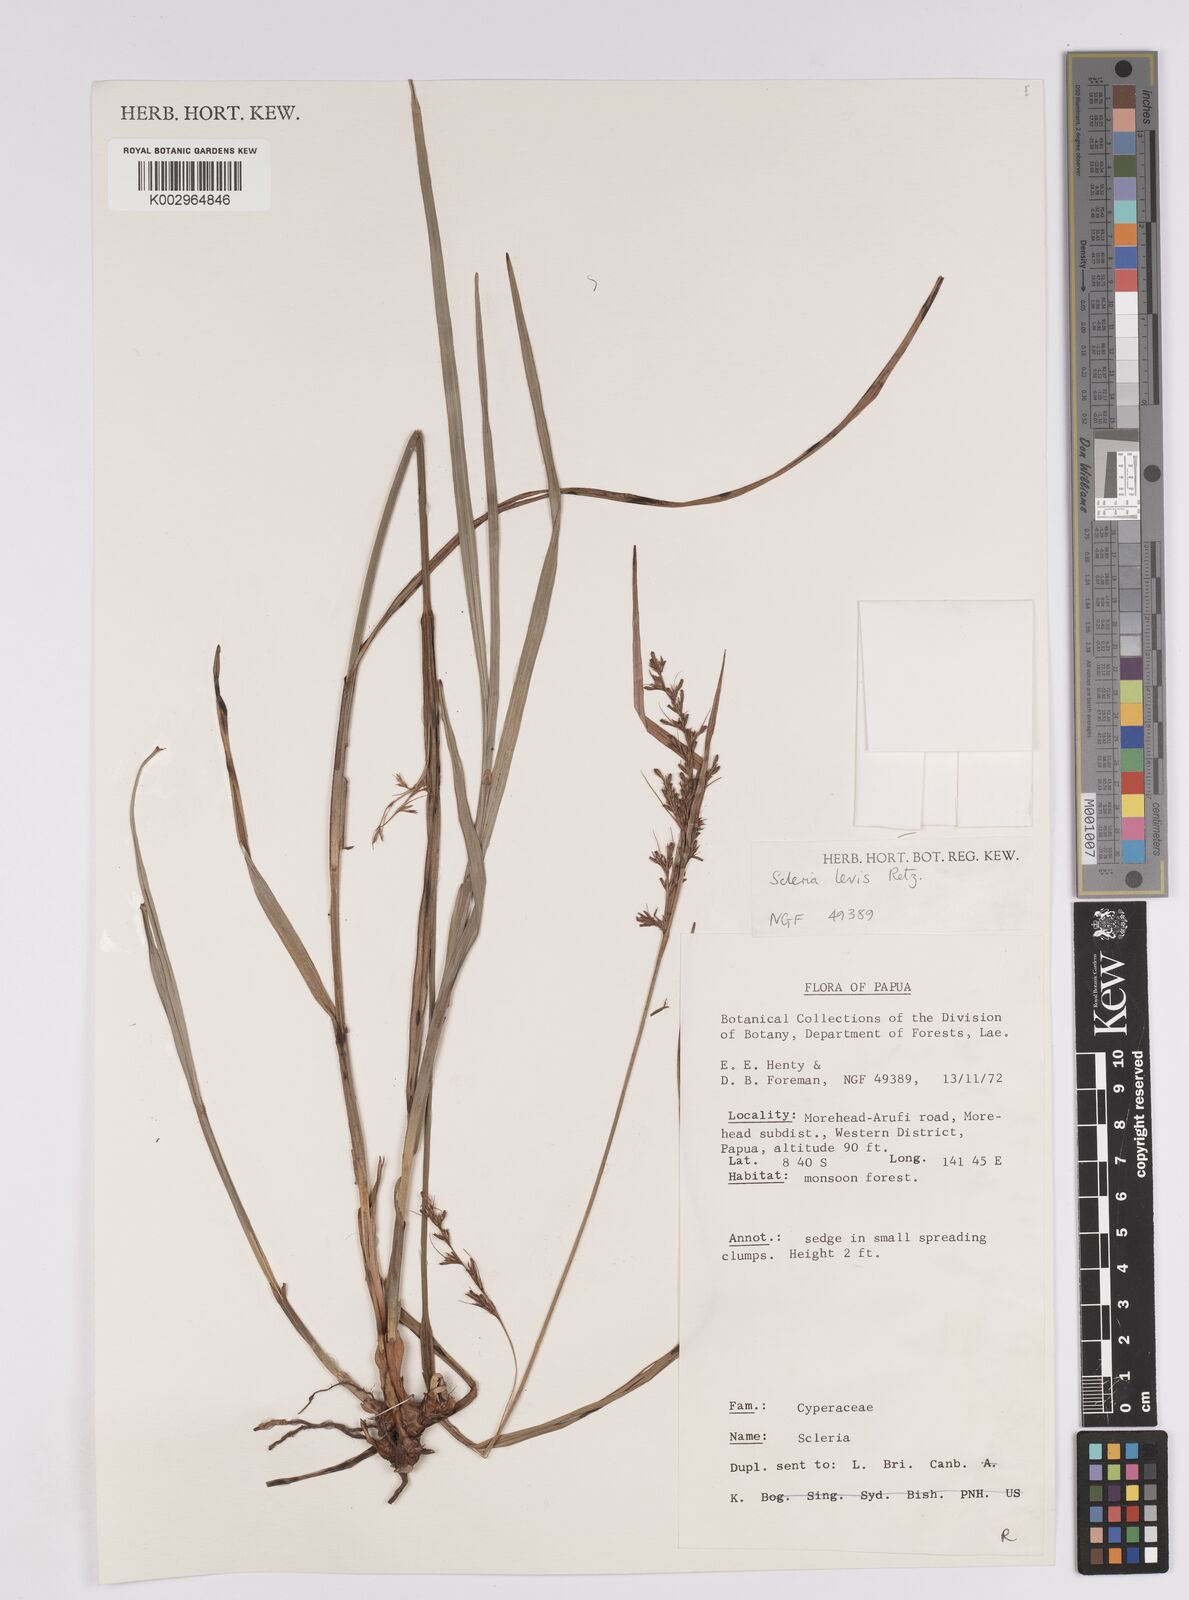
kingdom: Plantae
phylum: Tracheophyta
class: Liliopsida
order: Poales
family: Cyperaceae
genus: Scleria
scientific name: Scleria
